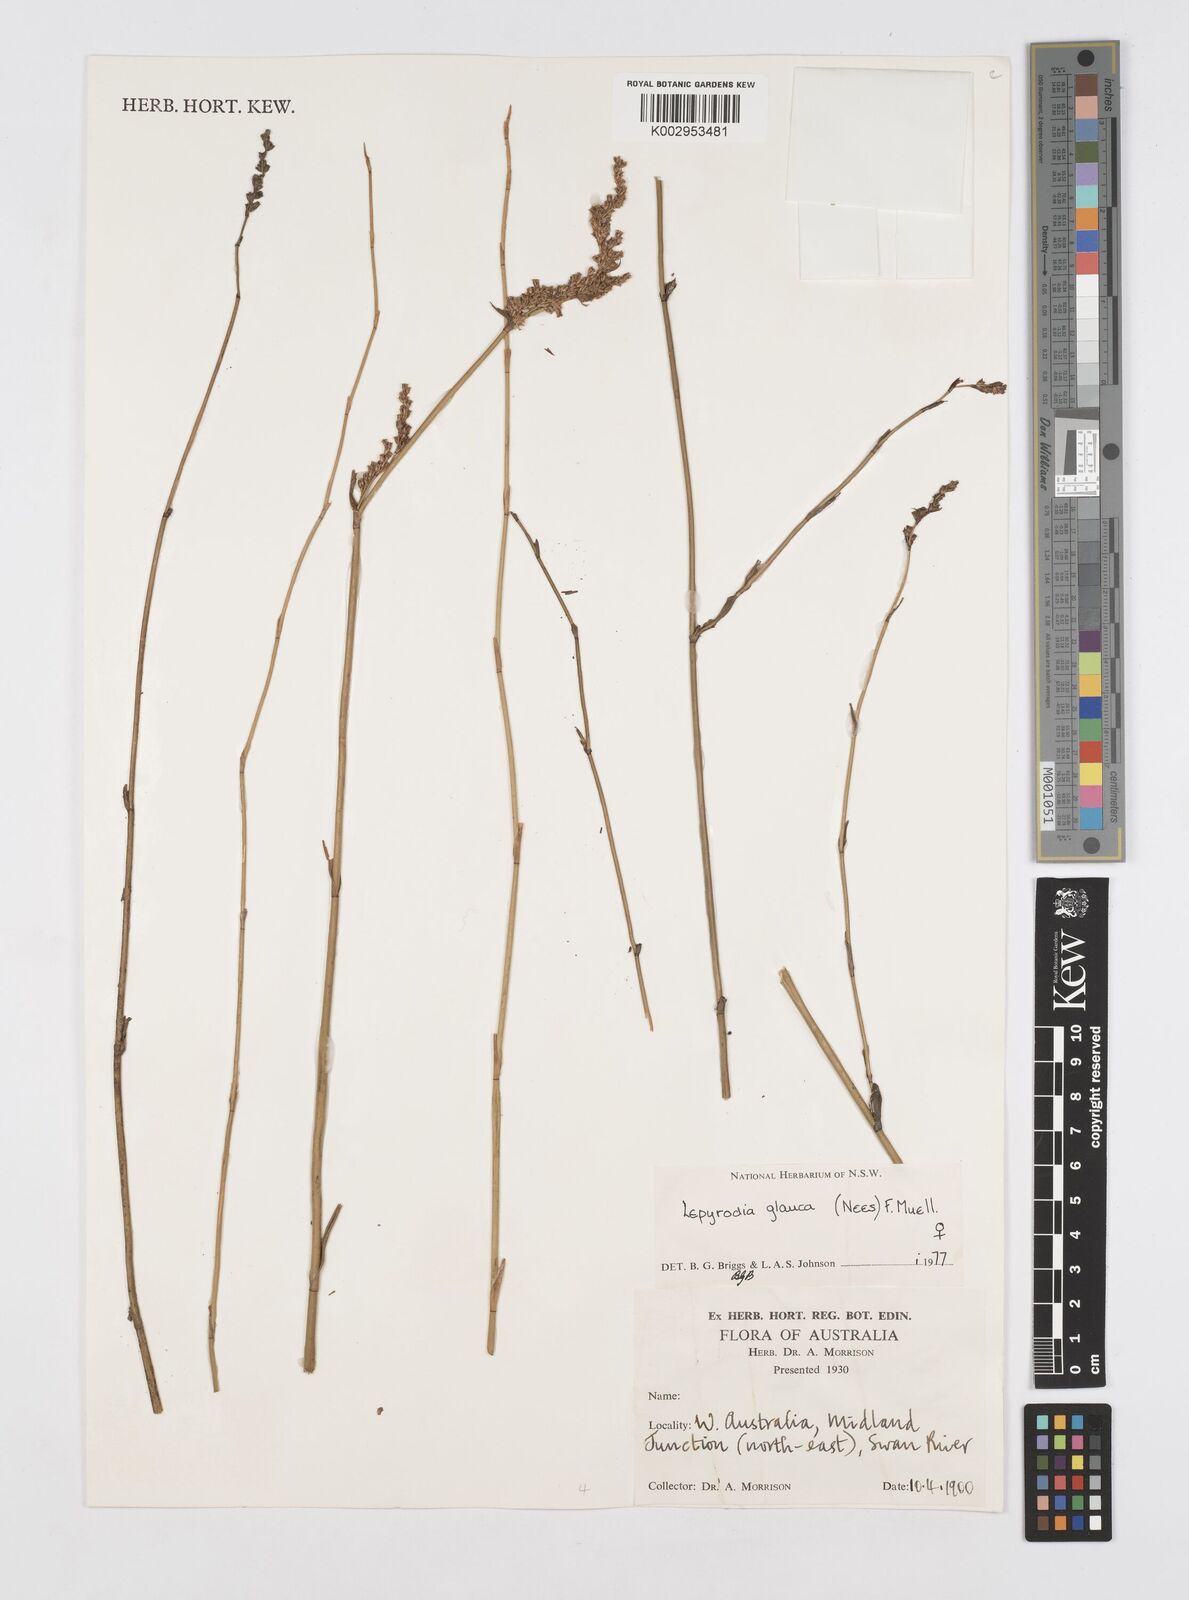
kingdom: Plantae
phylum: Tracheophyta
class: Liliopsida
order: Poales
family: Restionaceae
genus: Lepyrodia
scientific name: Lepyrodia glauca
